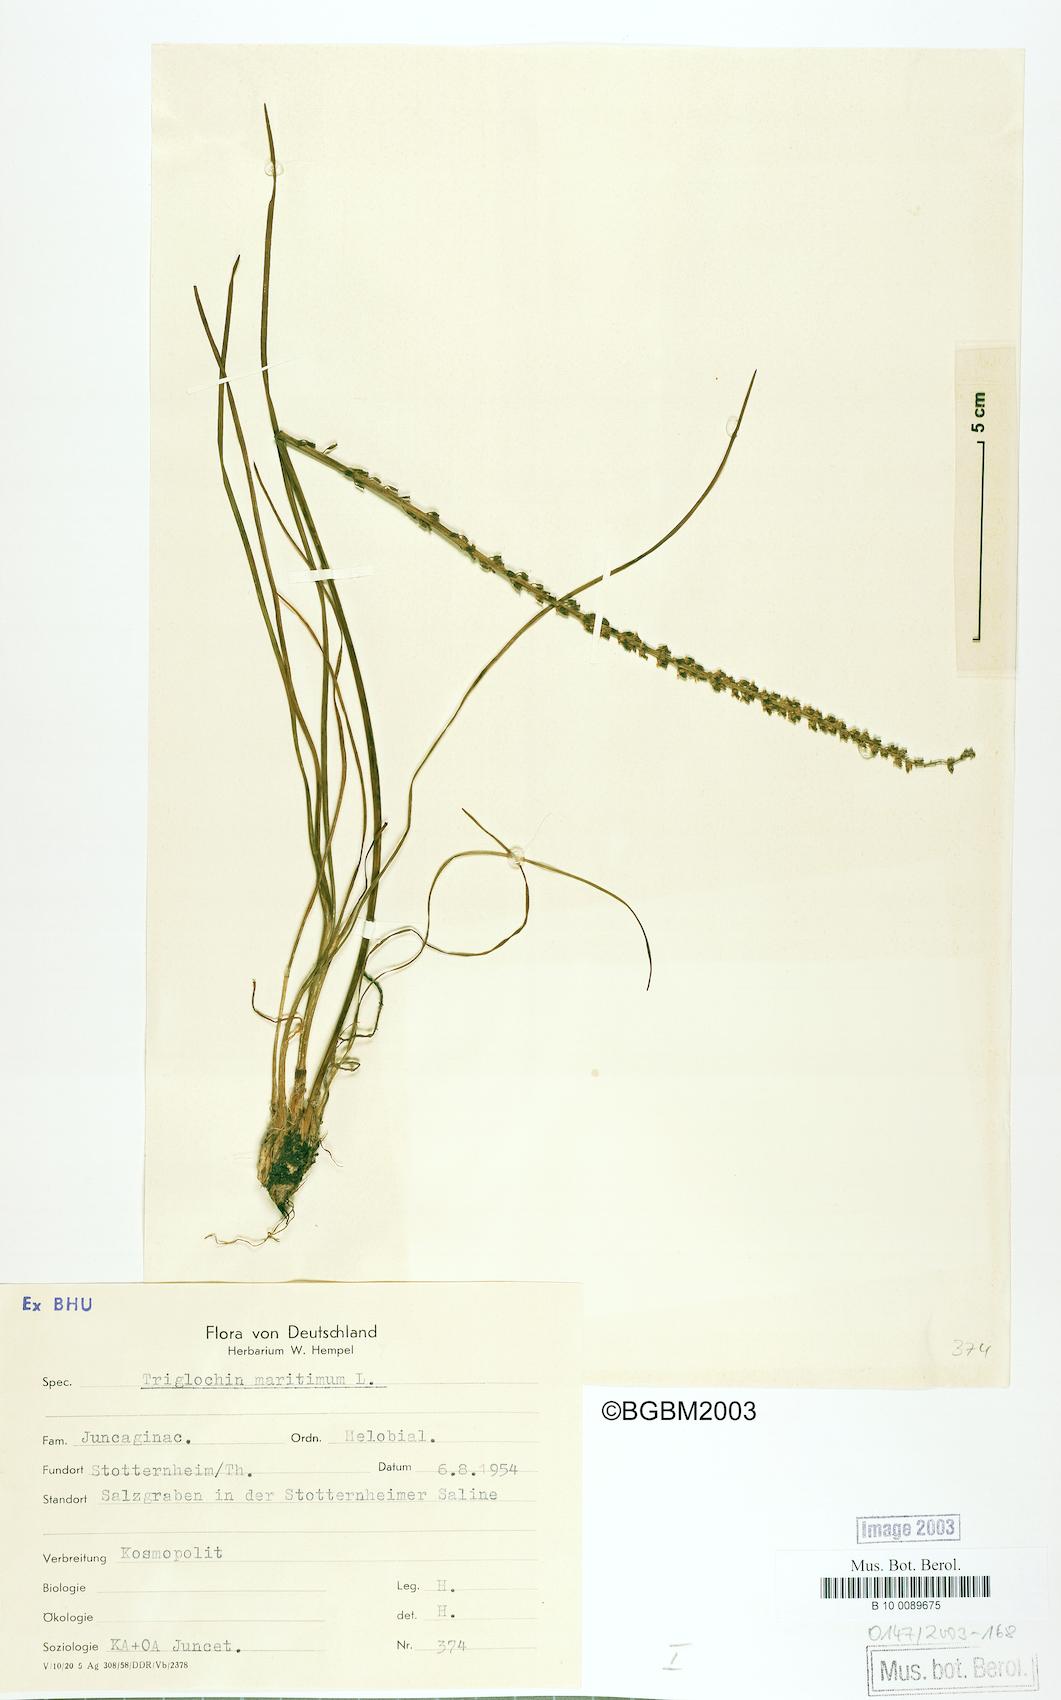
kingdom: Plantae
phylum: Tracheophyta
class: Liliopsida
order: Alismatales
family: Juncaginaceae
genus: Triglochin
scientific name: Triglochin maritima
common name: Sea arrowgrass
